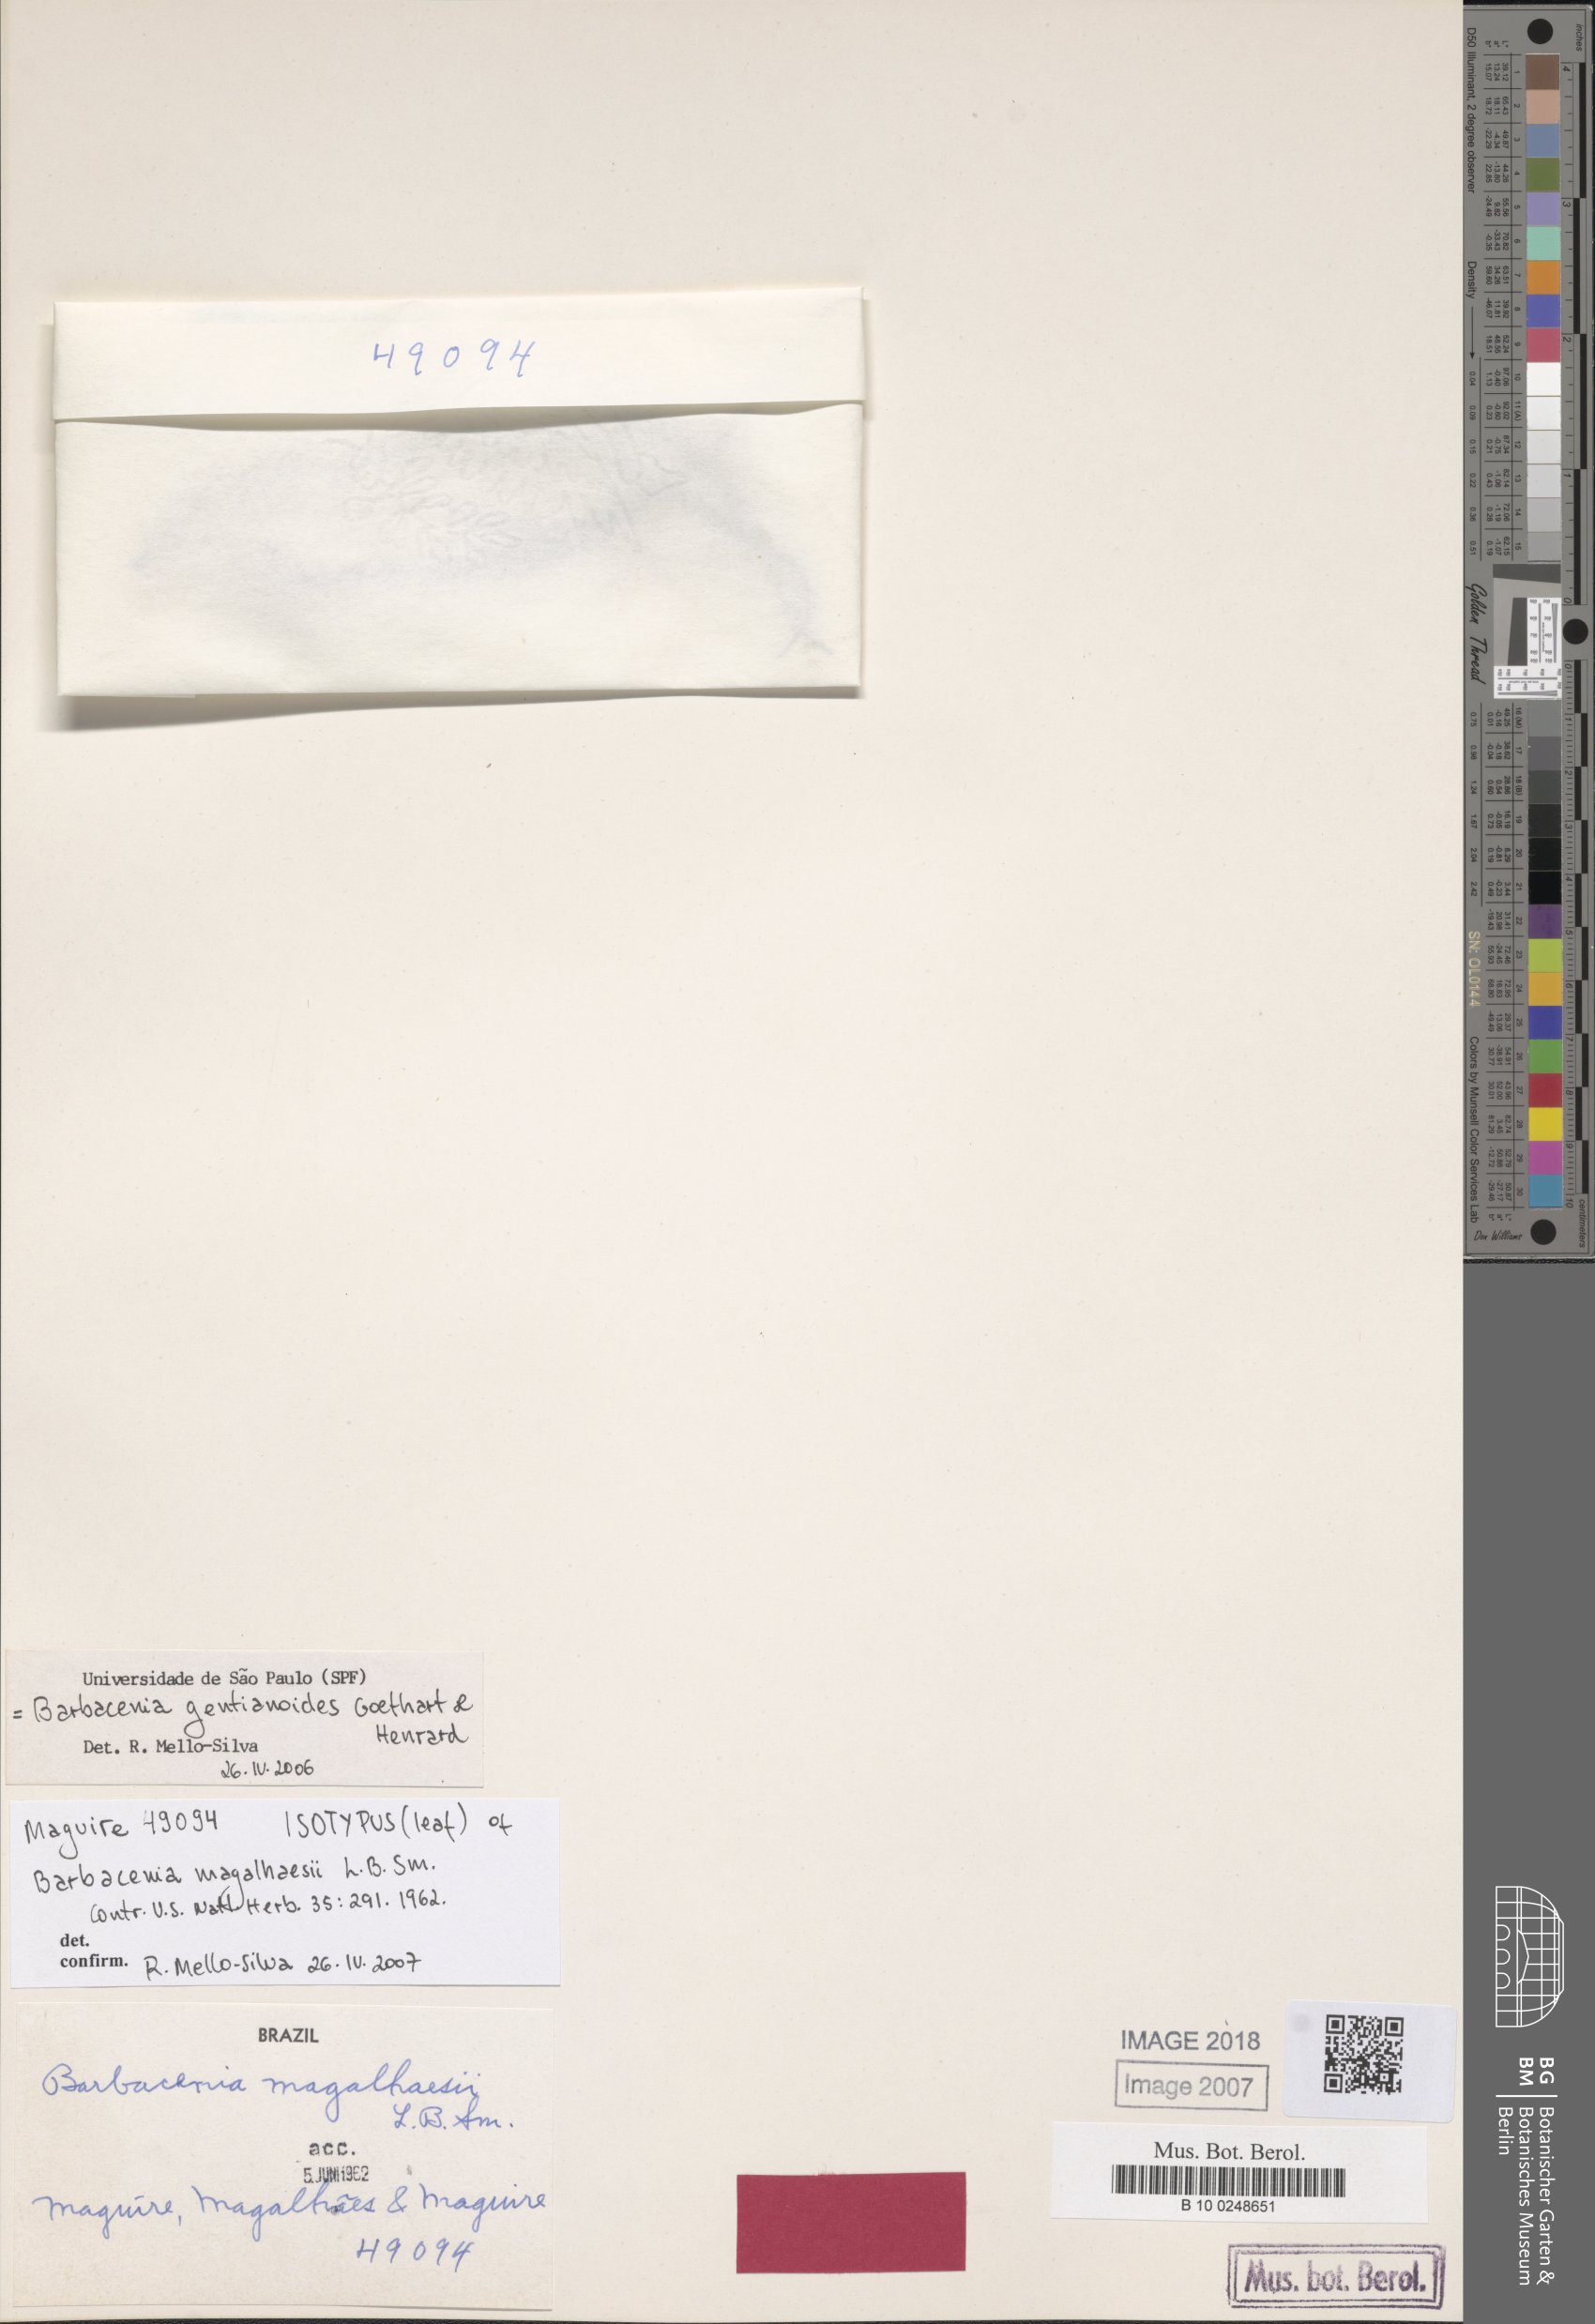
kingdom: Plantae
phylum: Tracheophyta
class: Liliopsida
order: Pandanales
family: Velloziaceae
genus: Barbacenia
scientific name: Barbacenia gentianoides
